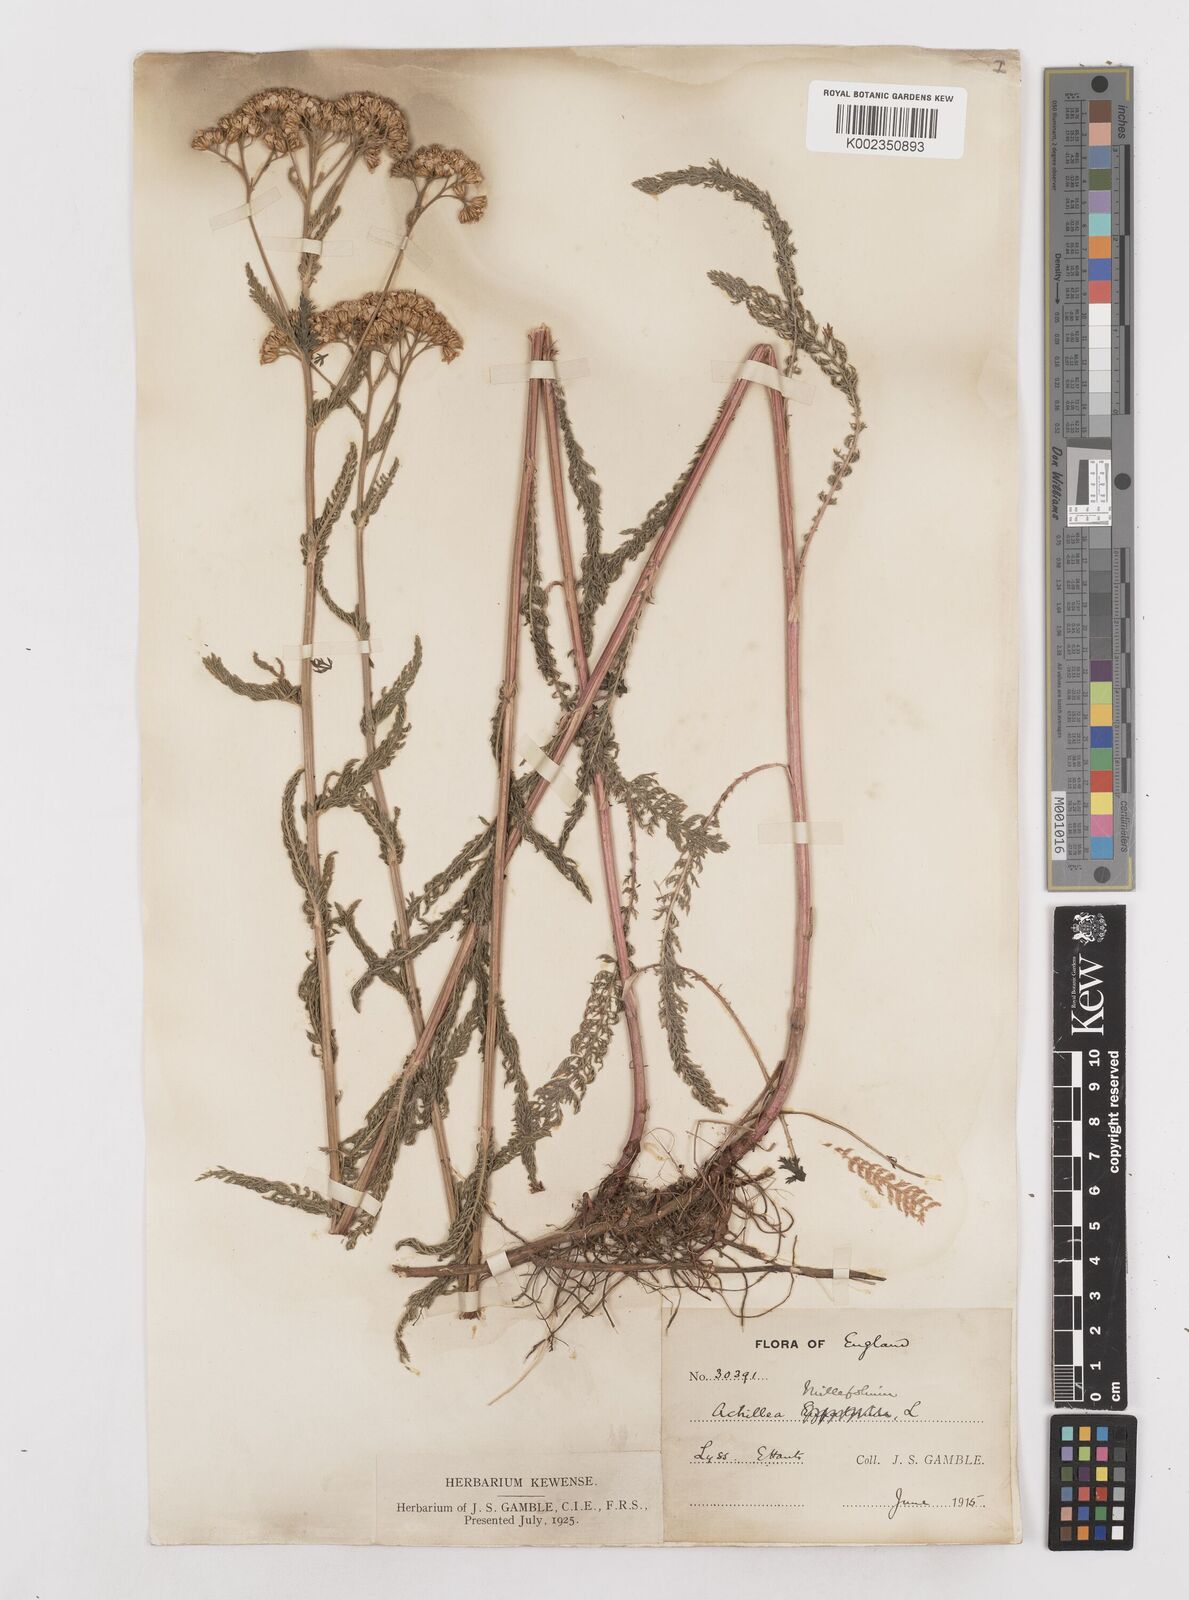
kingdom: Plantae
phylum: Tracheophyta
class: Magnoliopsida
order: Asterales
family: Asteraceae
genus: Achillea
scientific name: Achillea millefolium
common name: Yarrow
